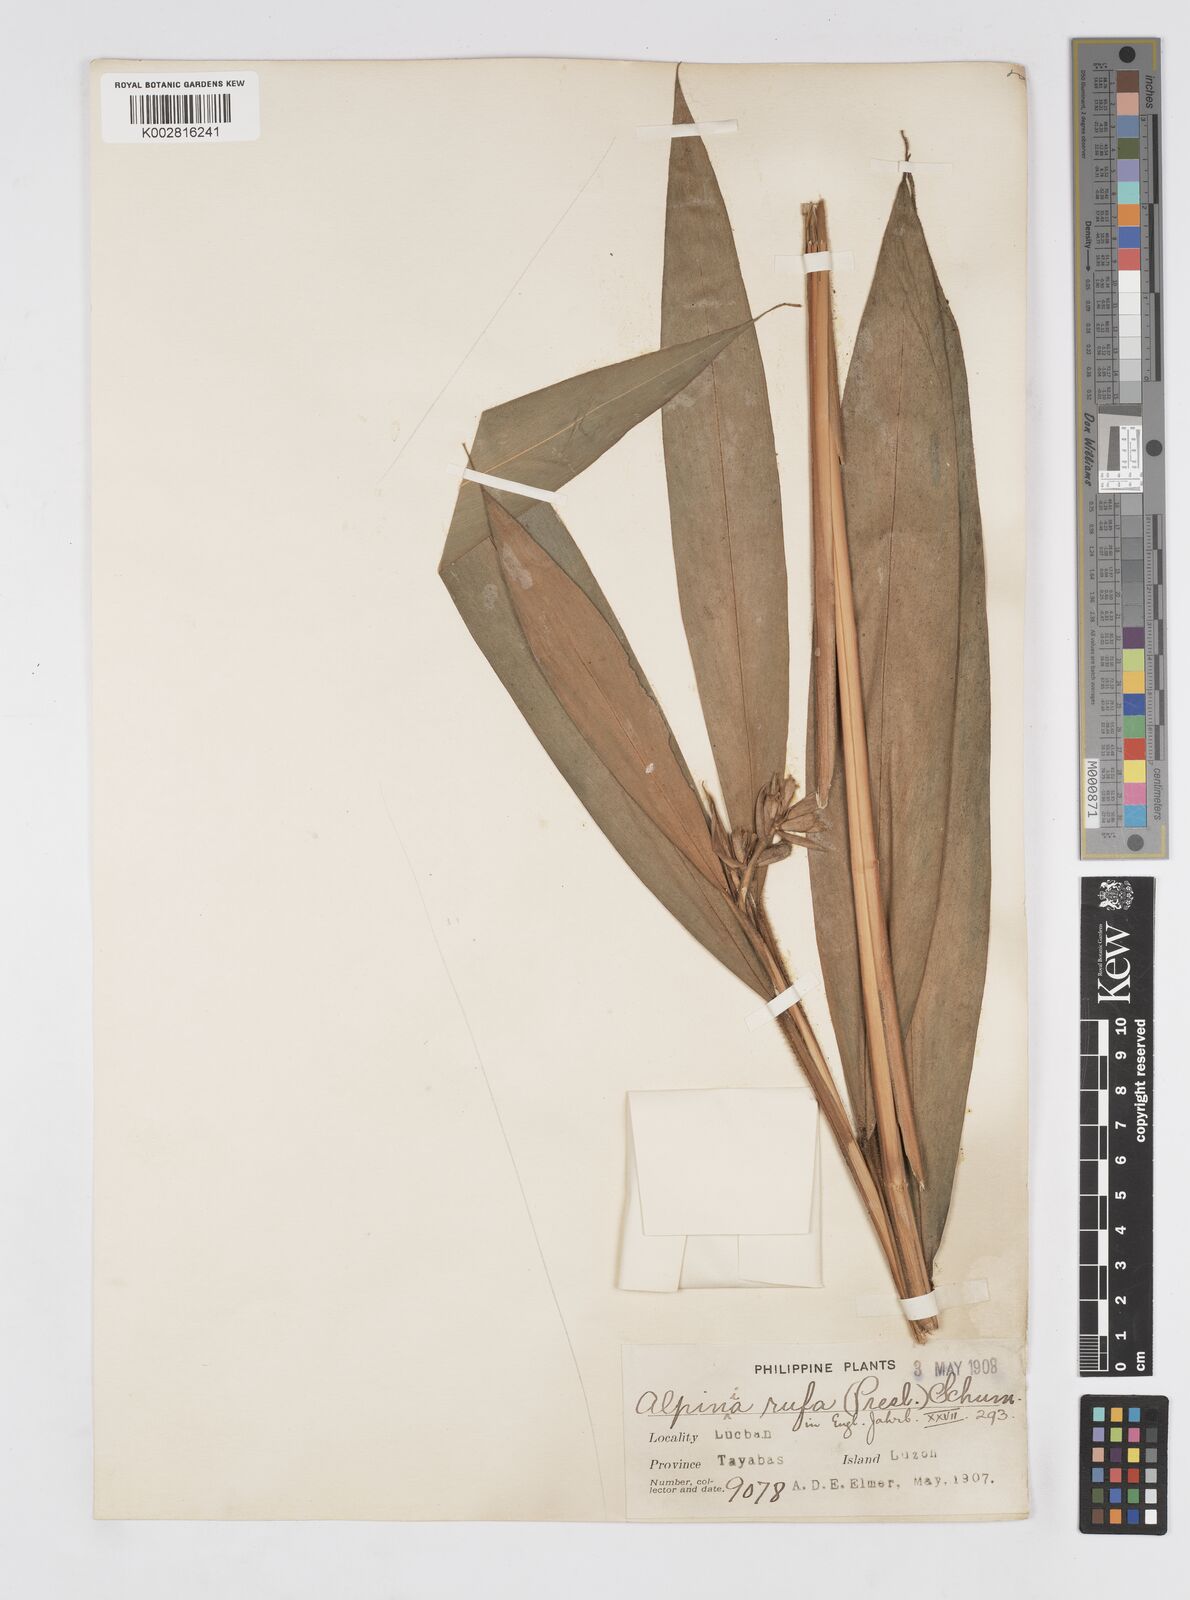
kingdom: Plantae
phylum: Tracheophyta
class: Liliopsida
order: Zingiberales
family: Zingiberaceae
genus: Alpinia
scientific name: Alpinia rufa
